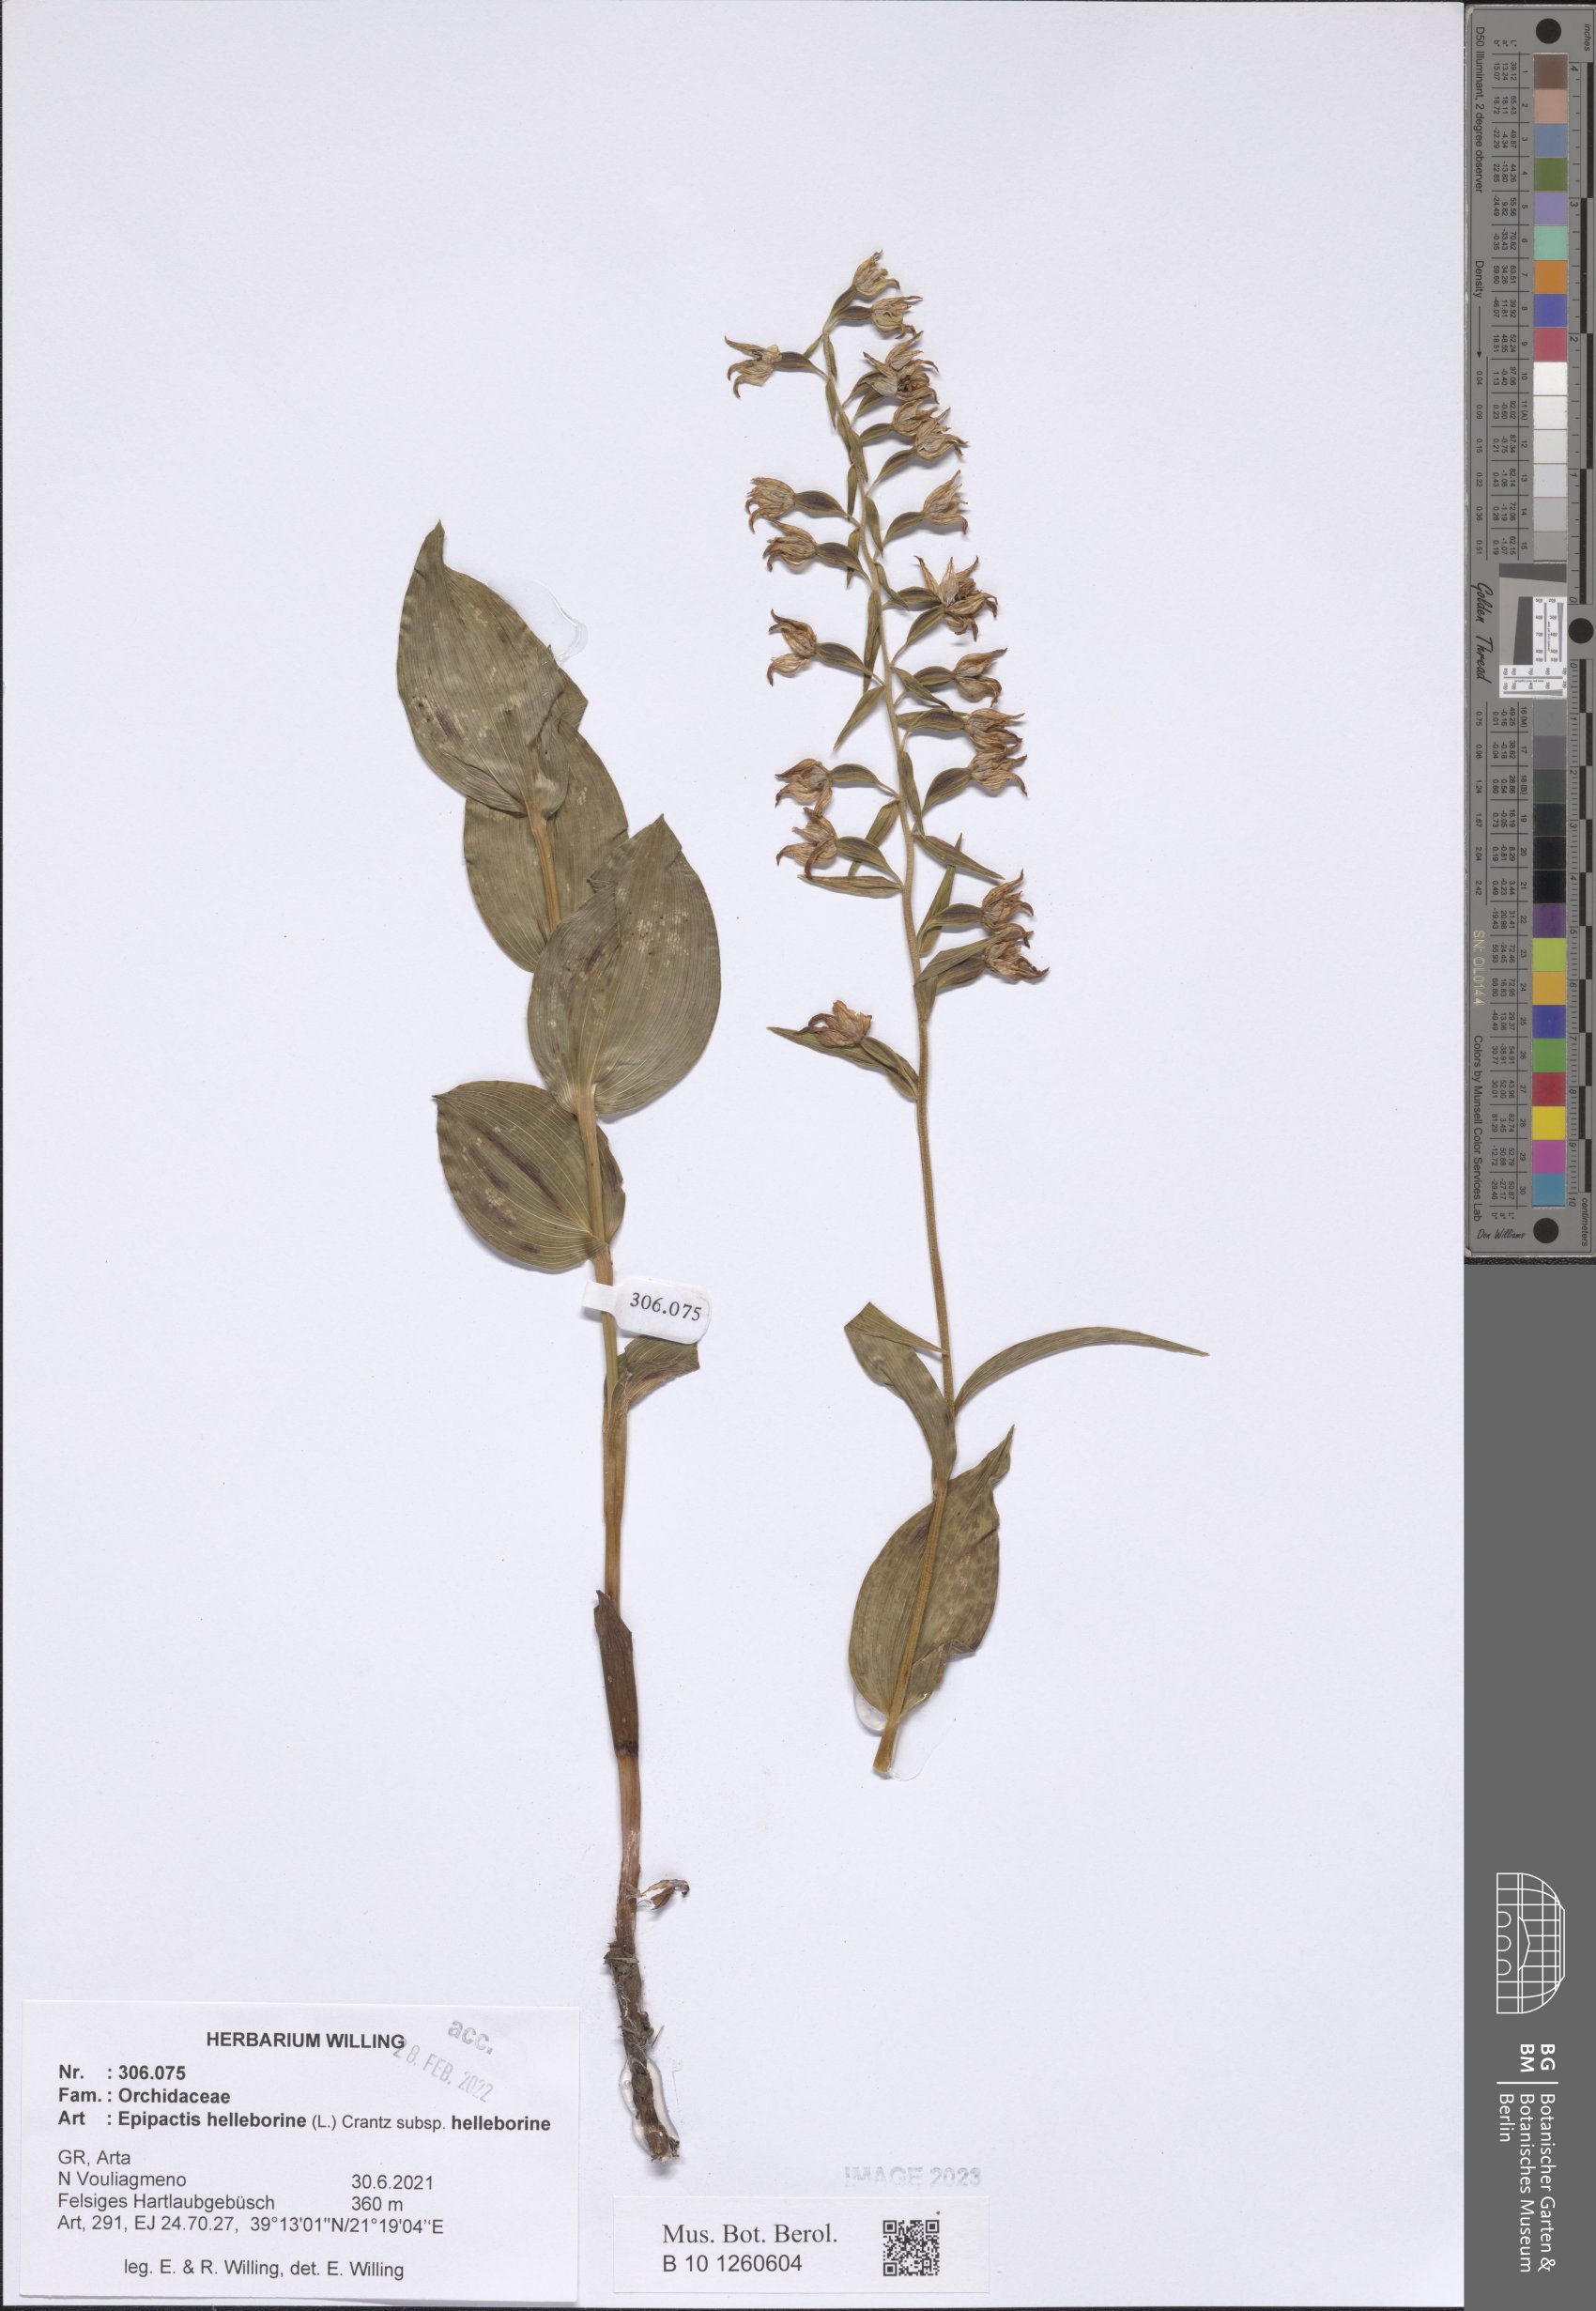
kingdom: Plantae
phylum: Tracheophyta
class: Liliopsida
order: Asparagales
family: Orchidaceae
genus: Epipactis
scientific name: Epipactis helleborine
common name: Broad-leaved helleborine
